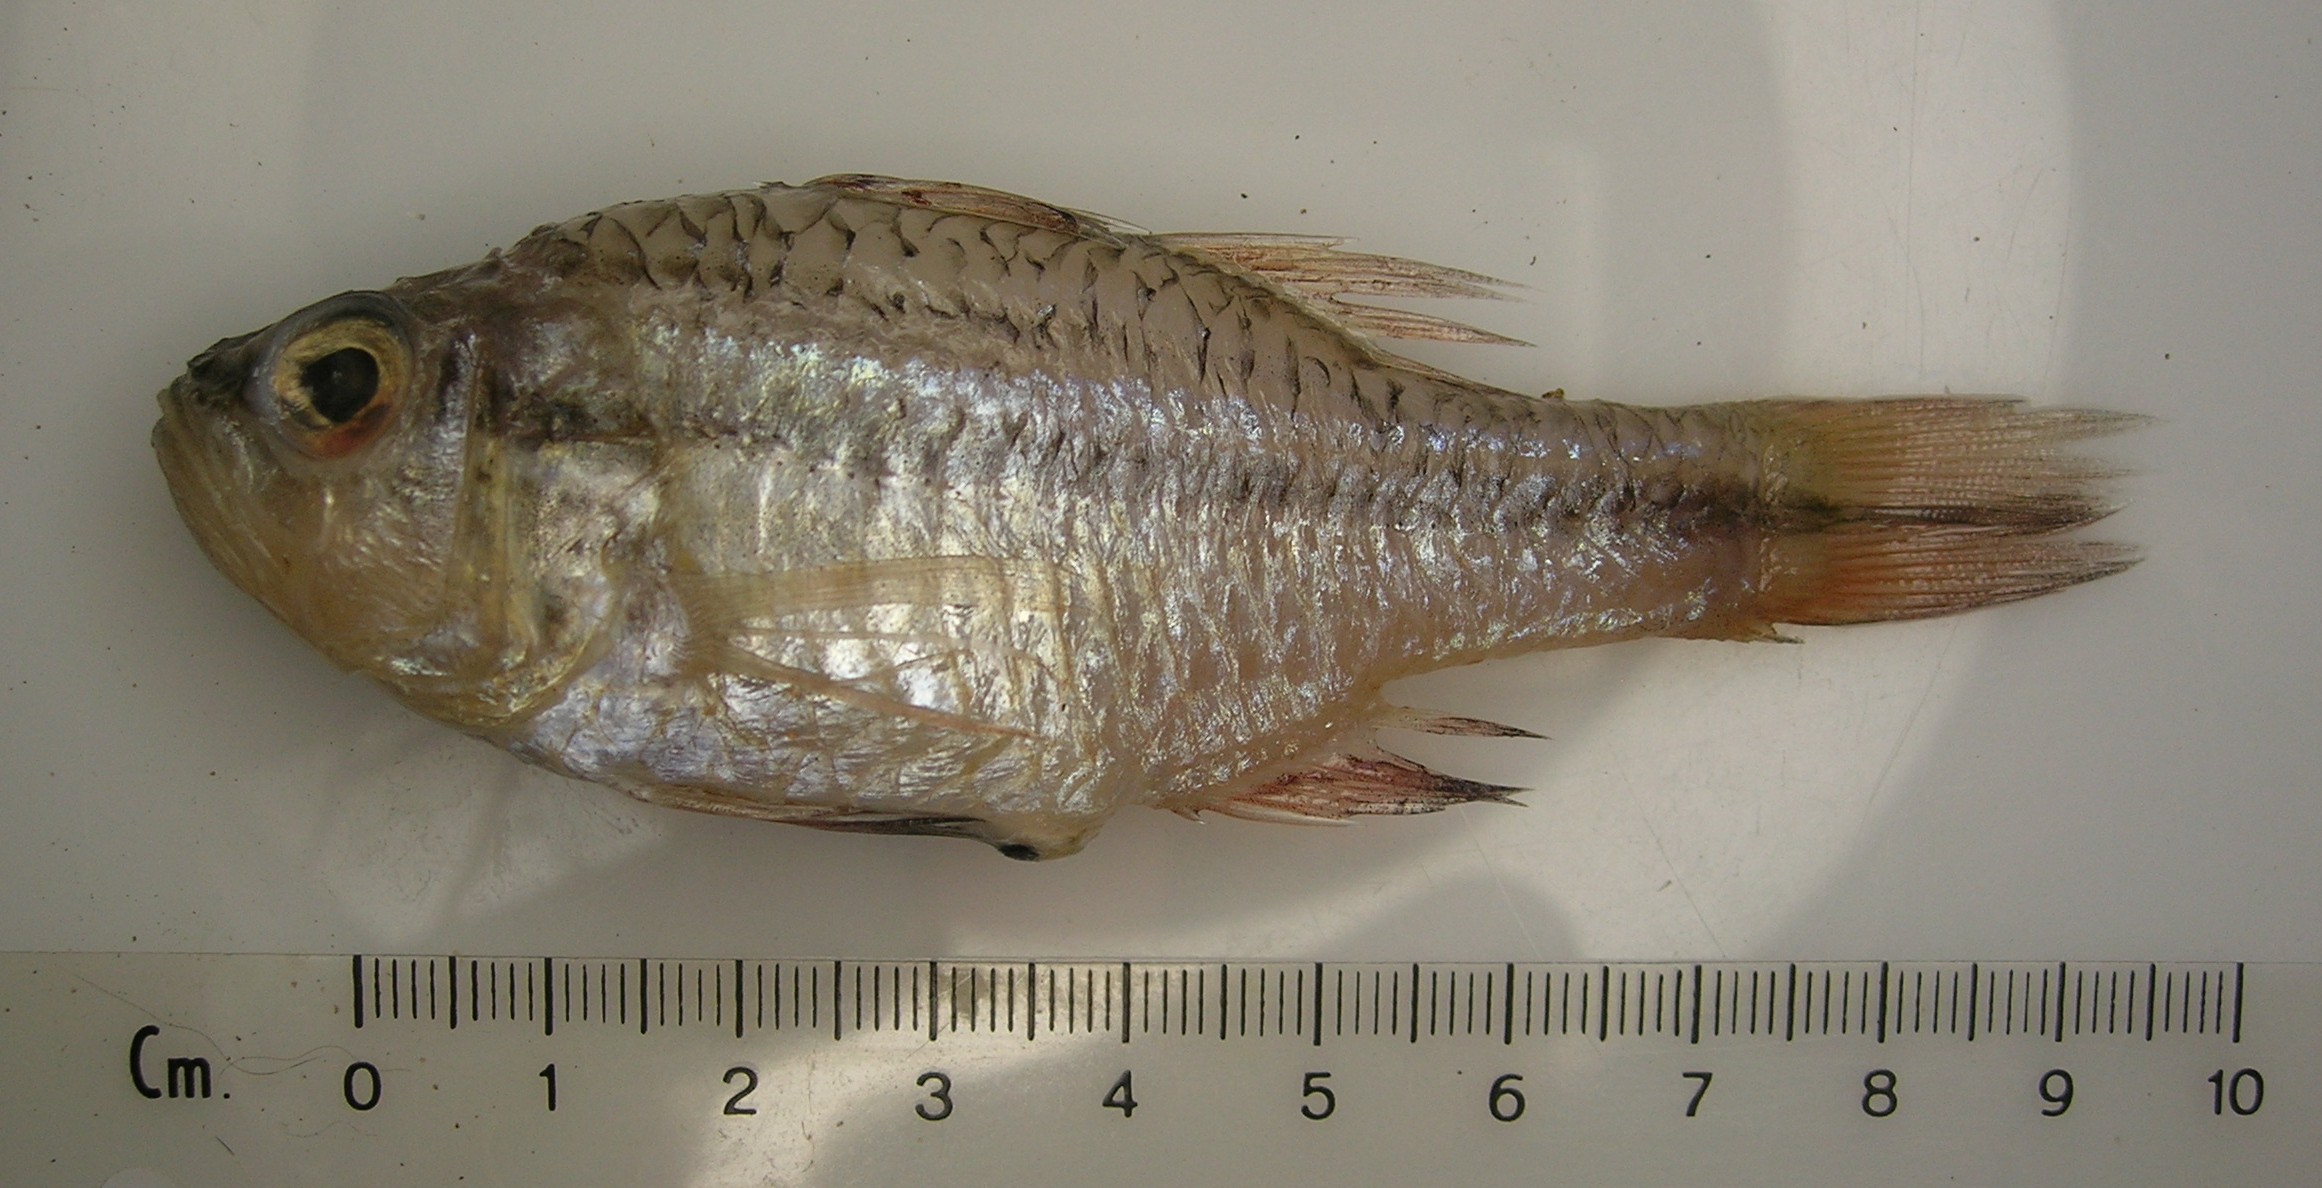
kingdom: Animalia
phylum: Chordata
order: Perciformes
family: Apogonidae
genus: Ostorhinchus
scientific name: Ostorhinchus fasciatus
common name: Twostripe cardinal
